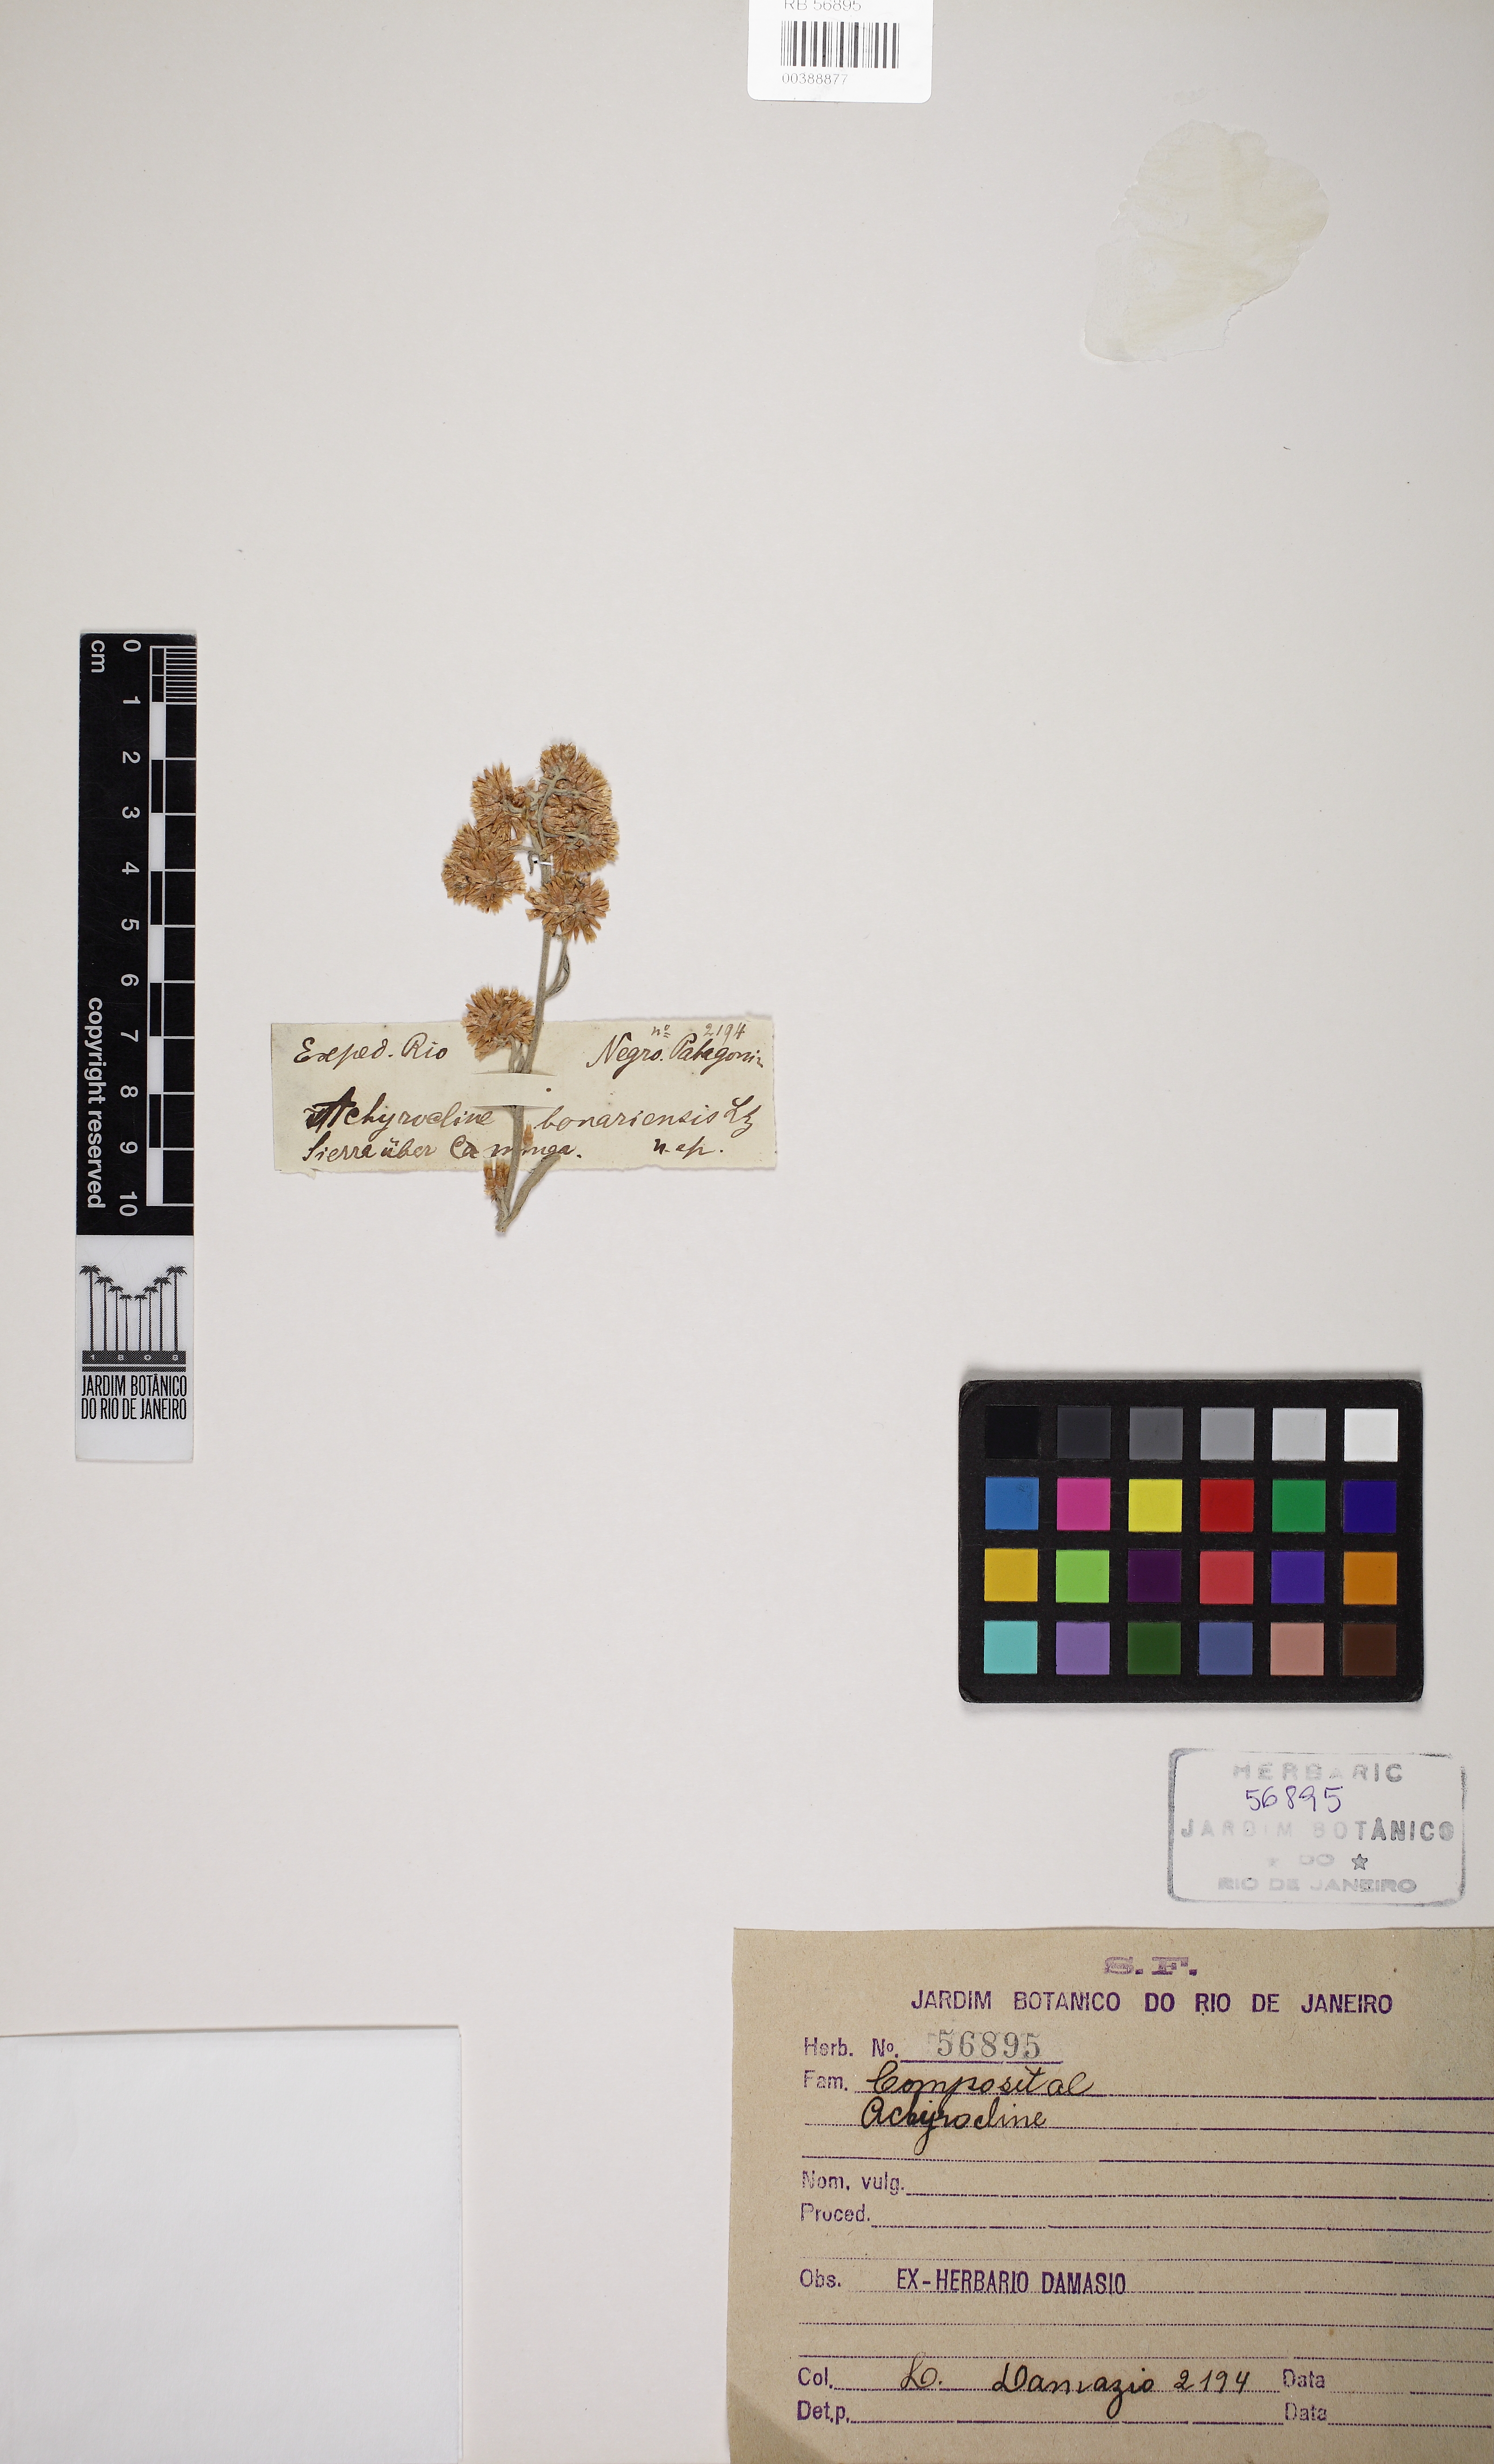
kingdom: Plantae
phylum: Tracheophyta
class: Magnoliopsida
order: Asterales
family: Asteraceae
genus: Achyrocline
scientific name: Achyrocline
